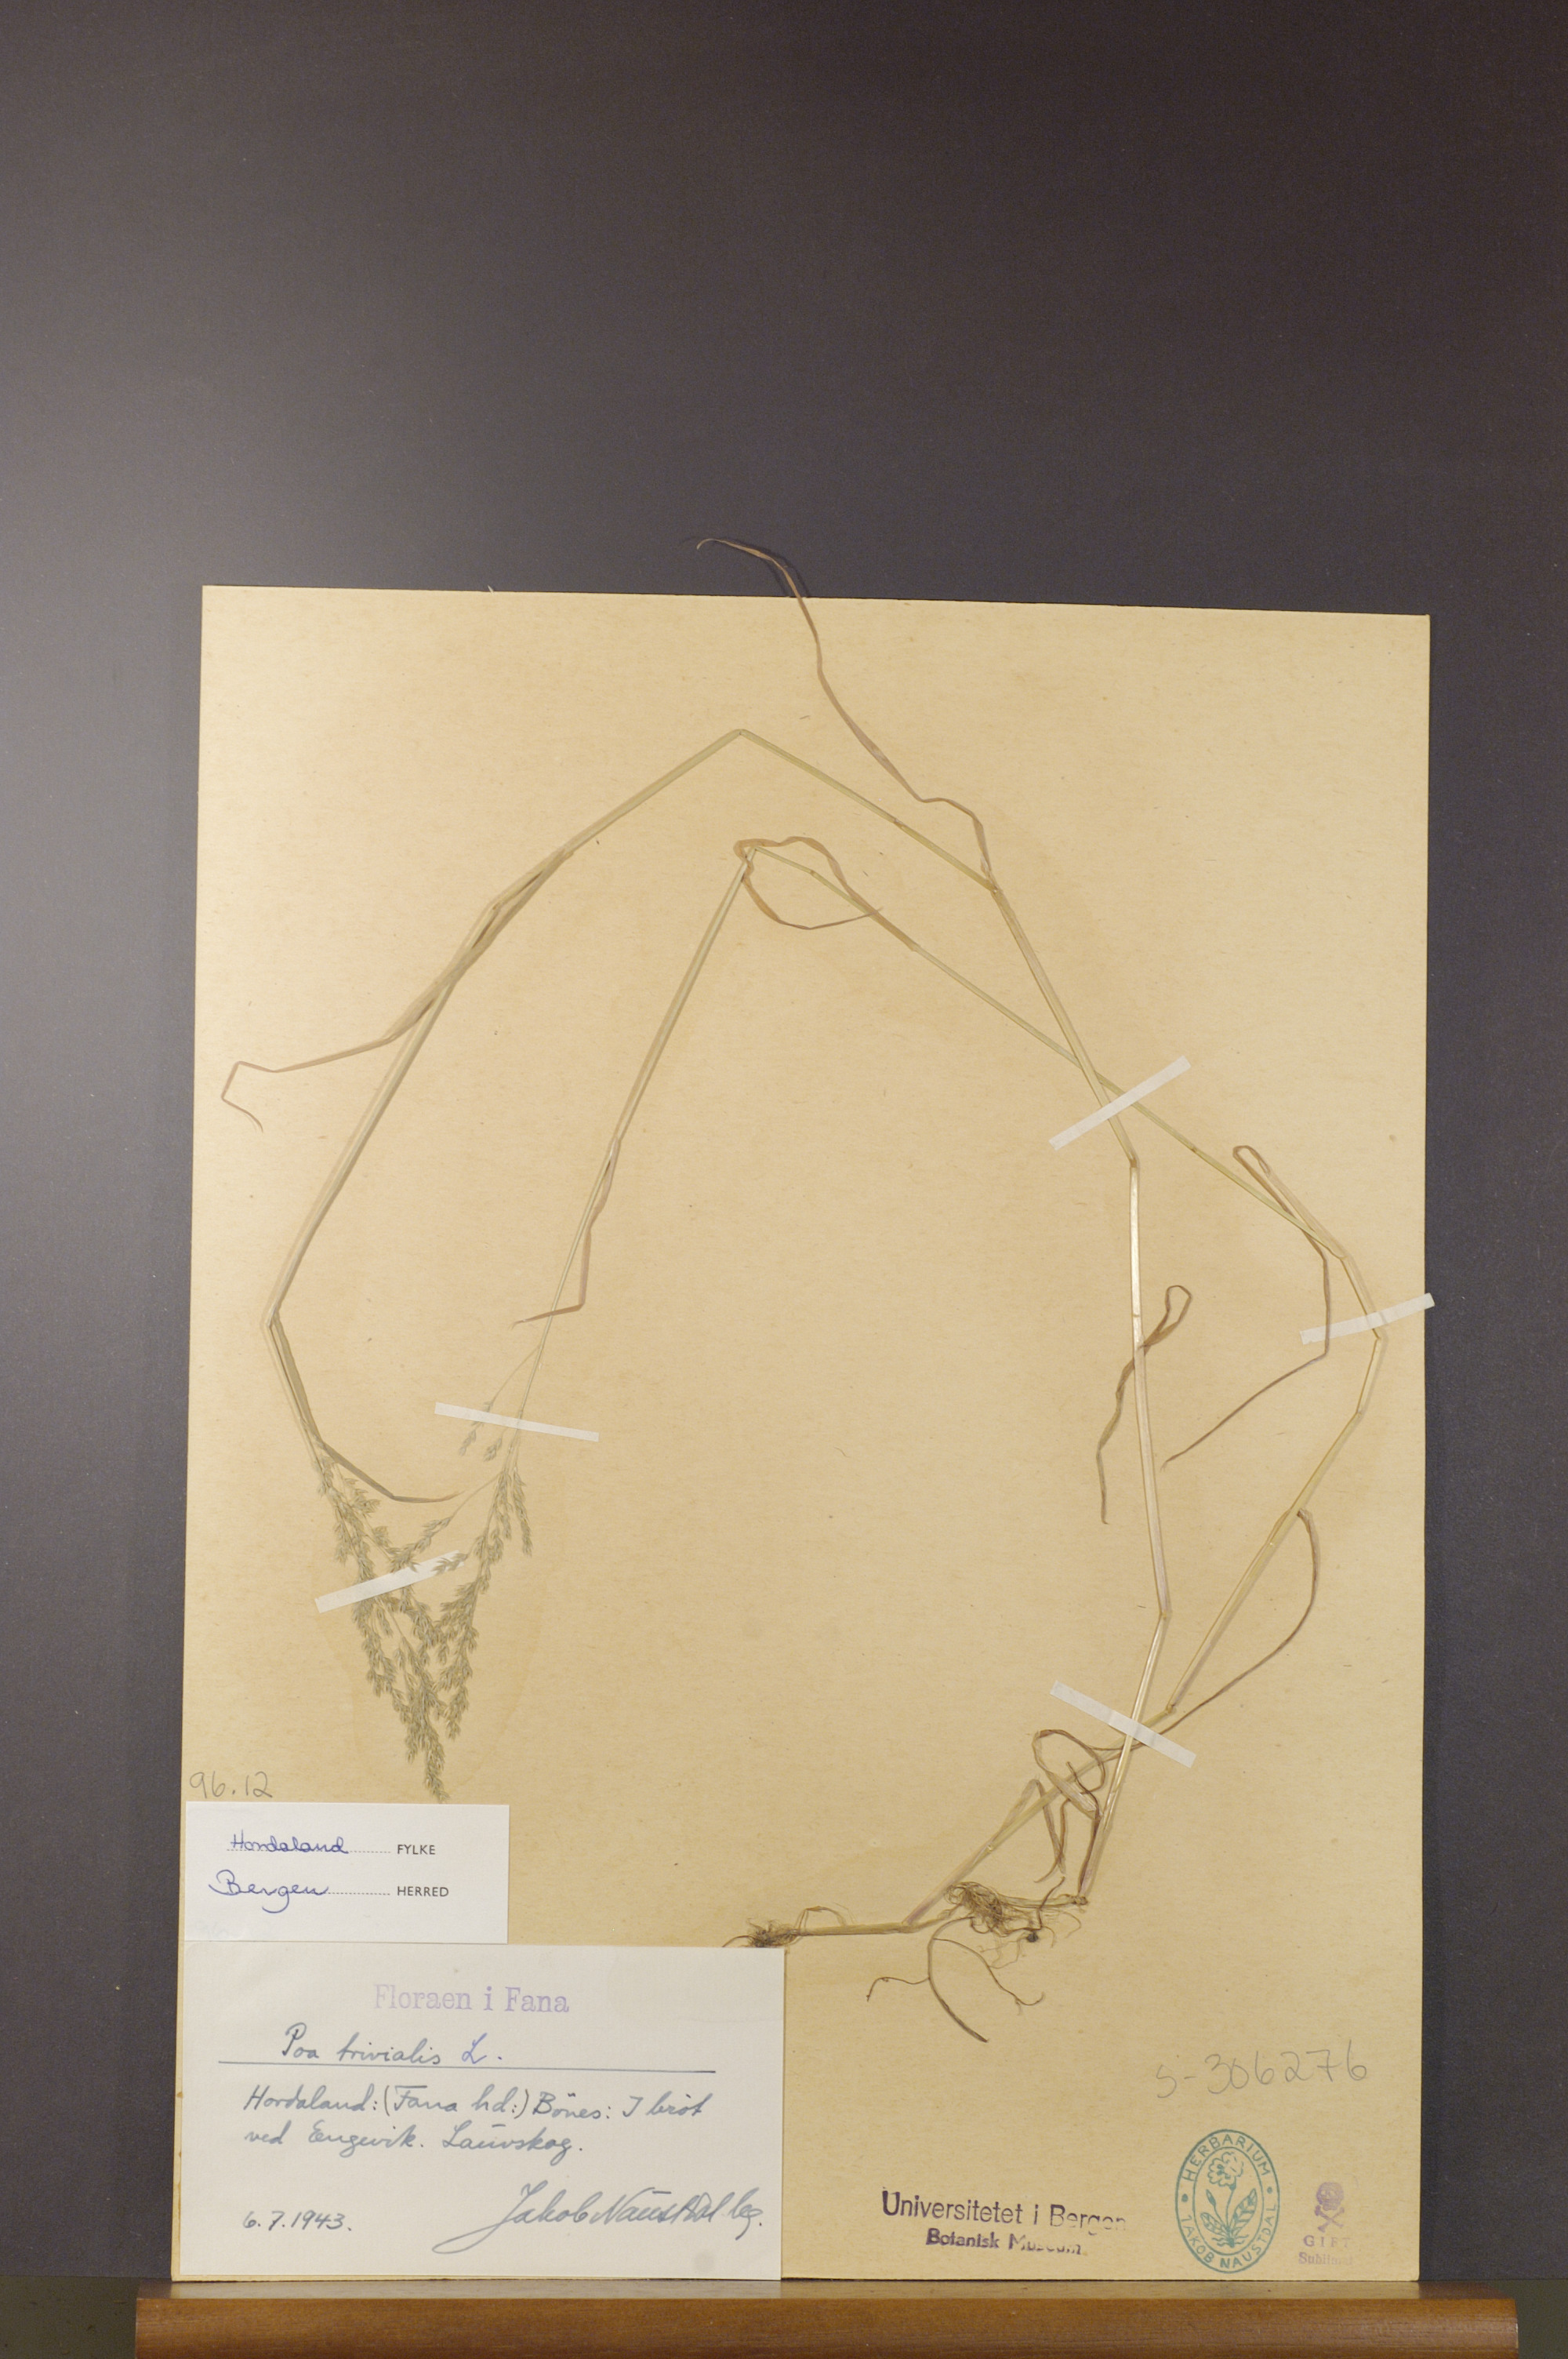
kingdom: Plantae
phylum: Tracheophyta
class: Liliopsida
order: Poales
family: Poaceae
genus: Poa
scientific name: Poa trivialis
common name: Rough bluegrass
